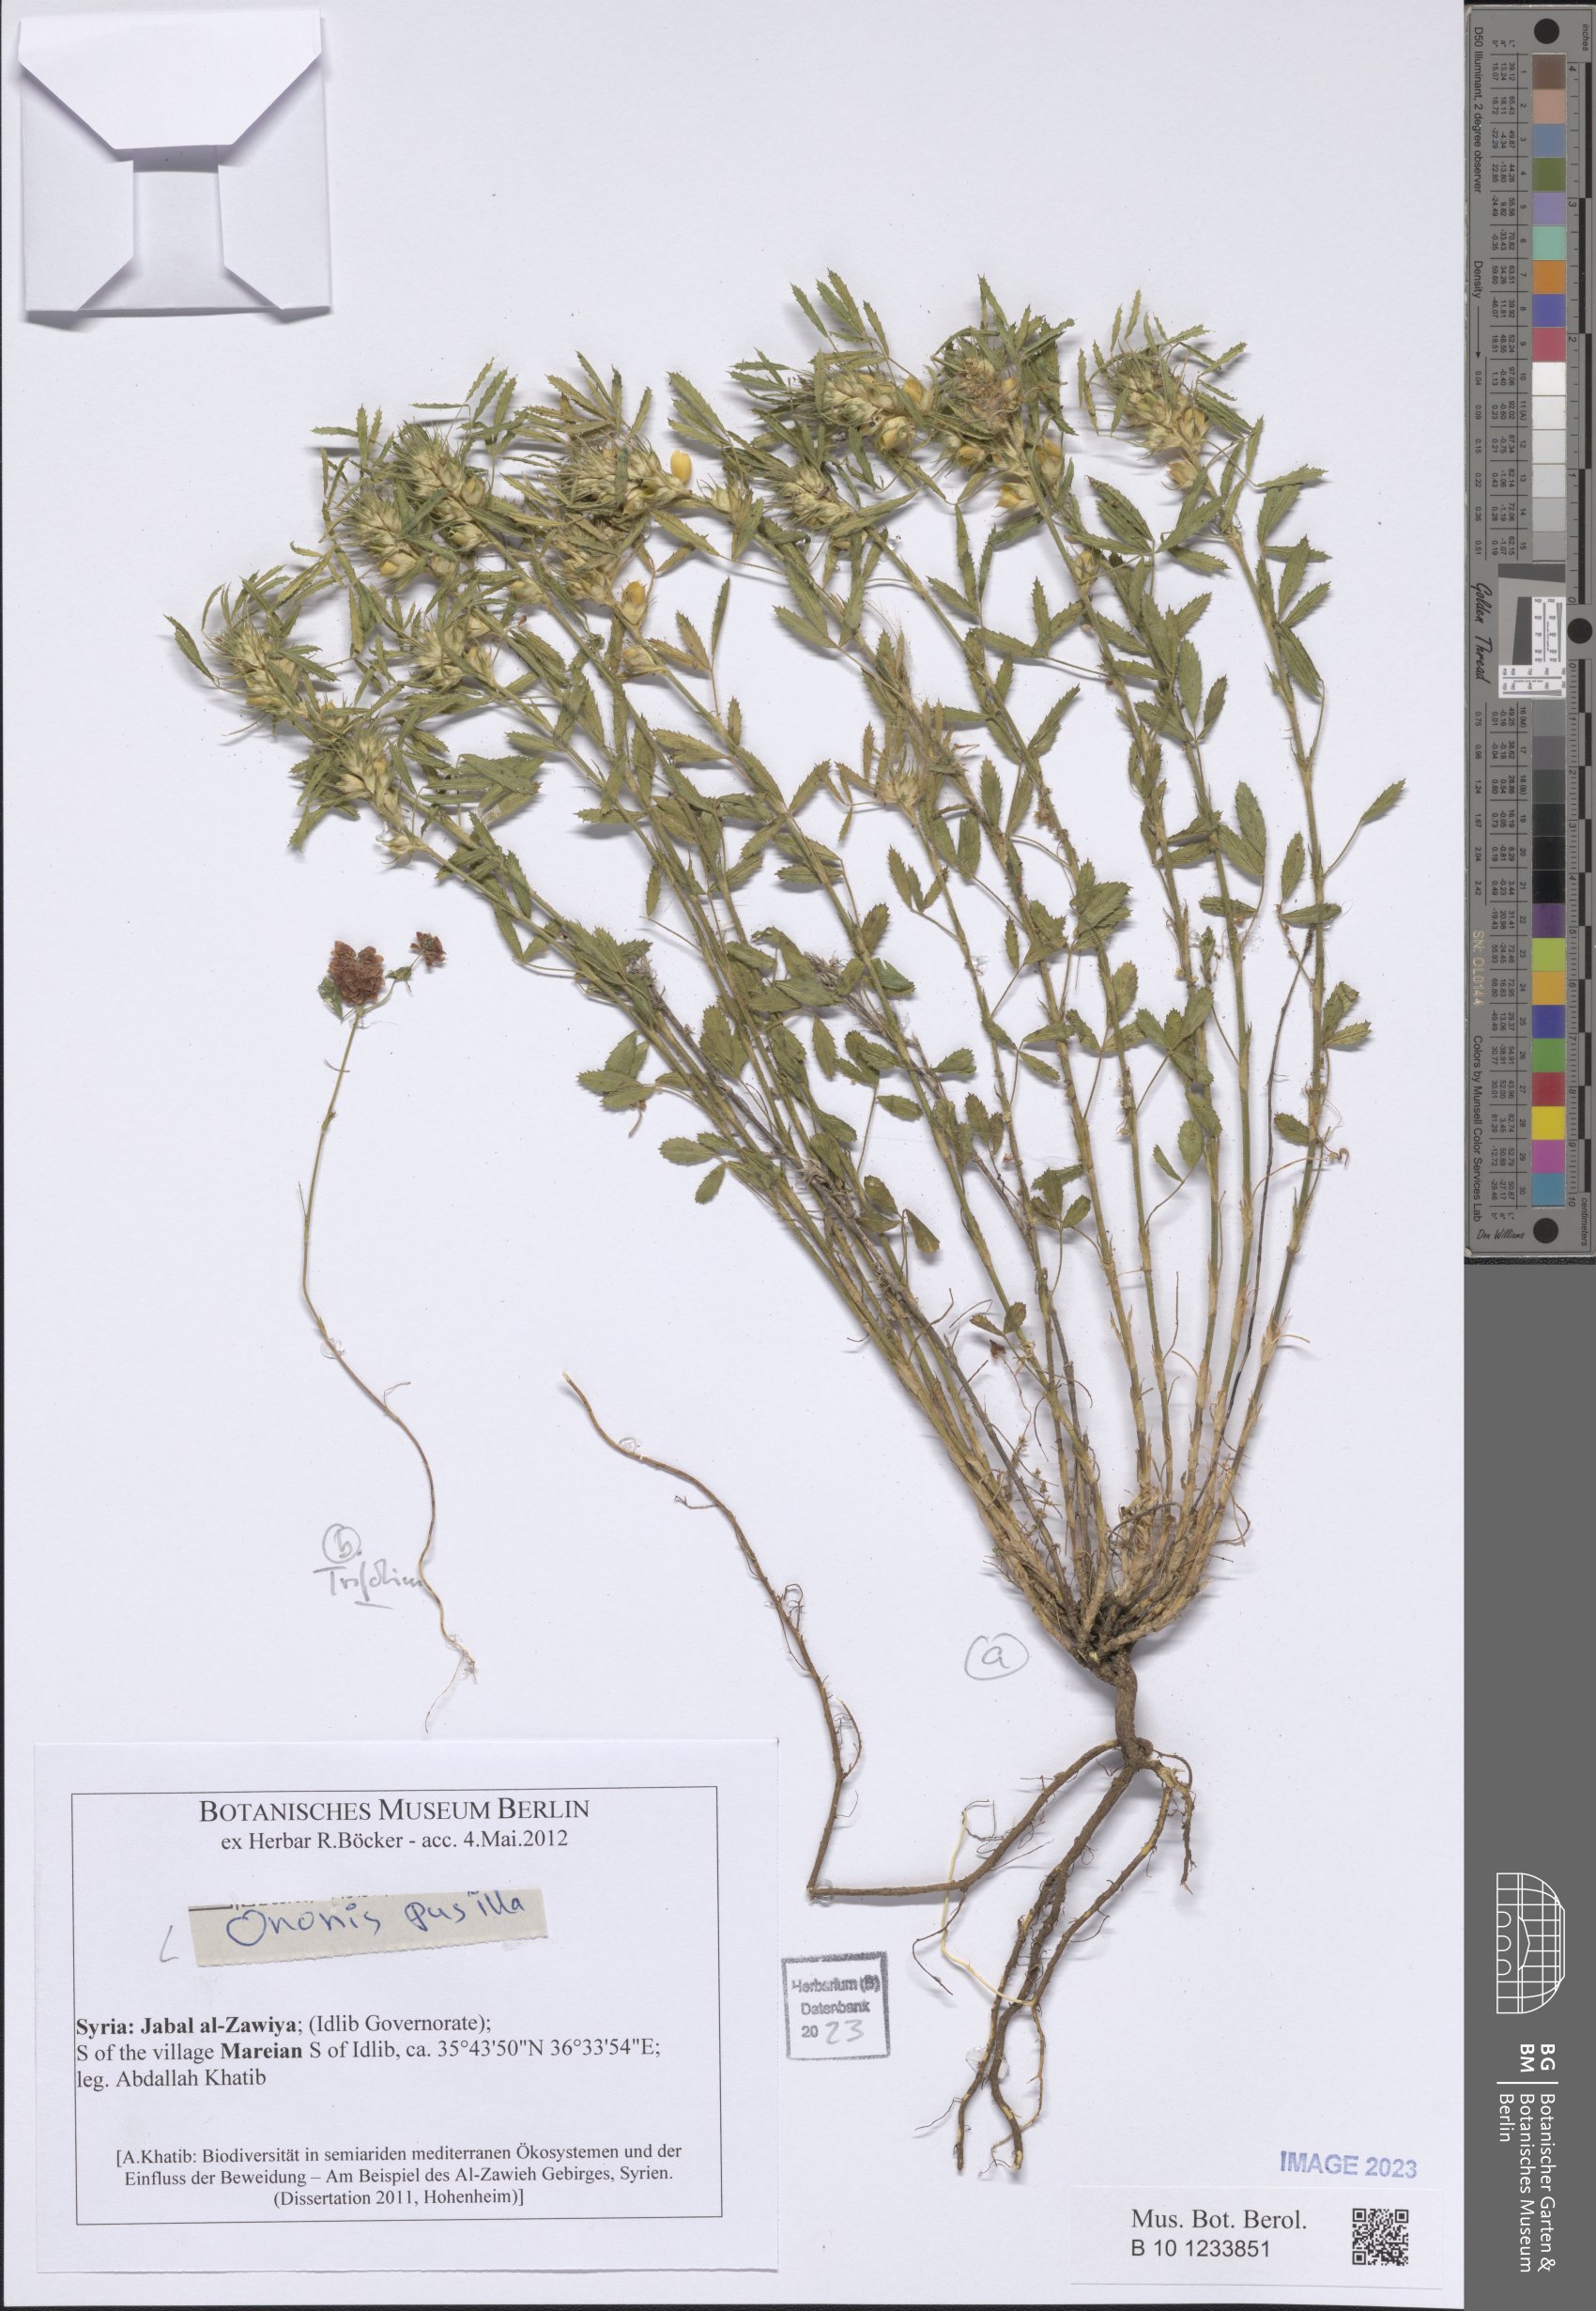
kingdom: Plantae
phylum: Tracheophyta
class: Magnoliopsida
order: Fabales
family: Fabaceae
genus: Trifolium
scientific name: Trifolium
